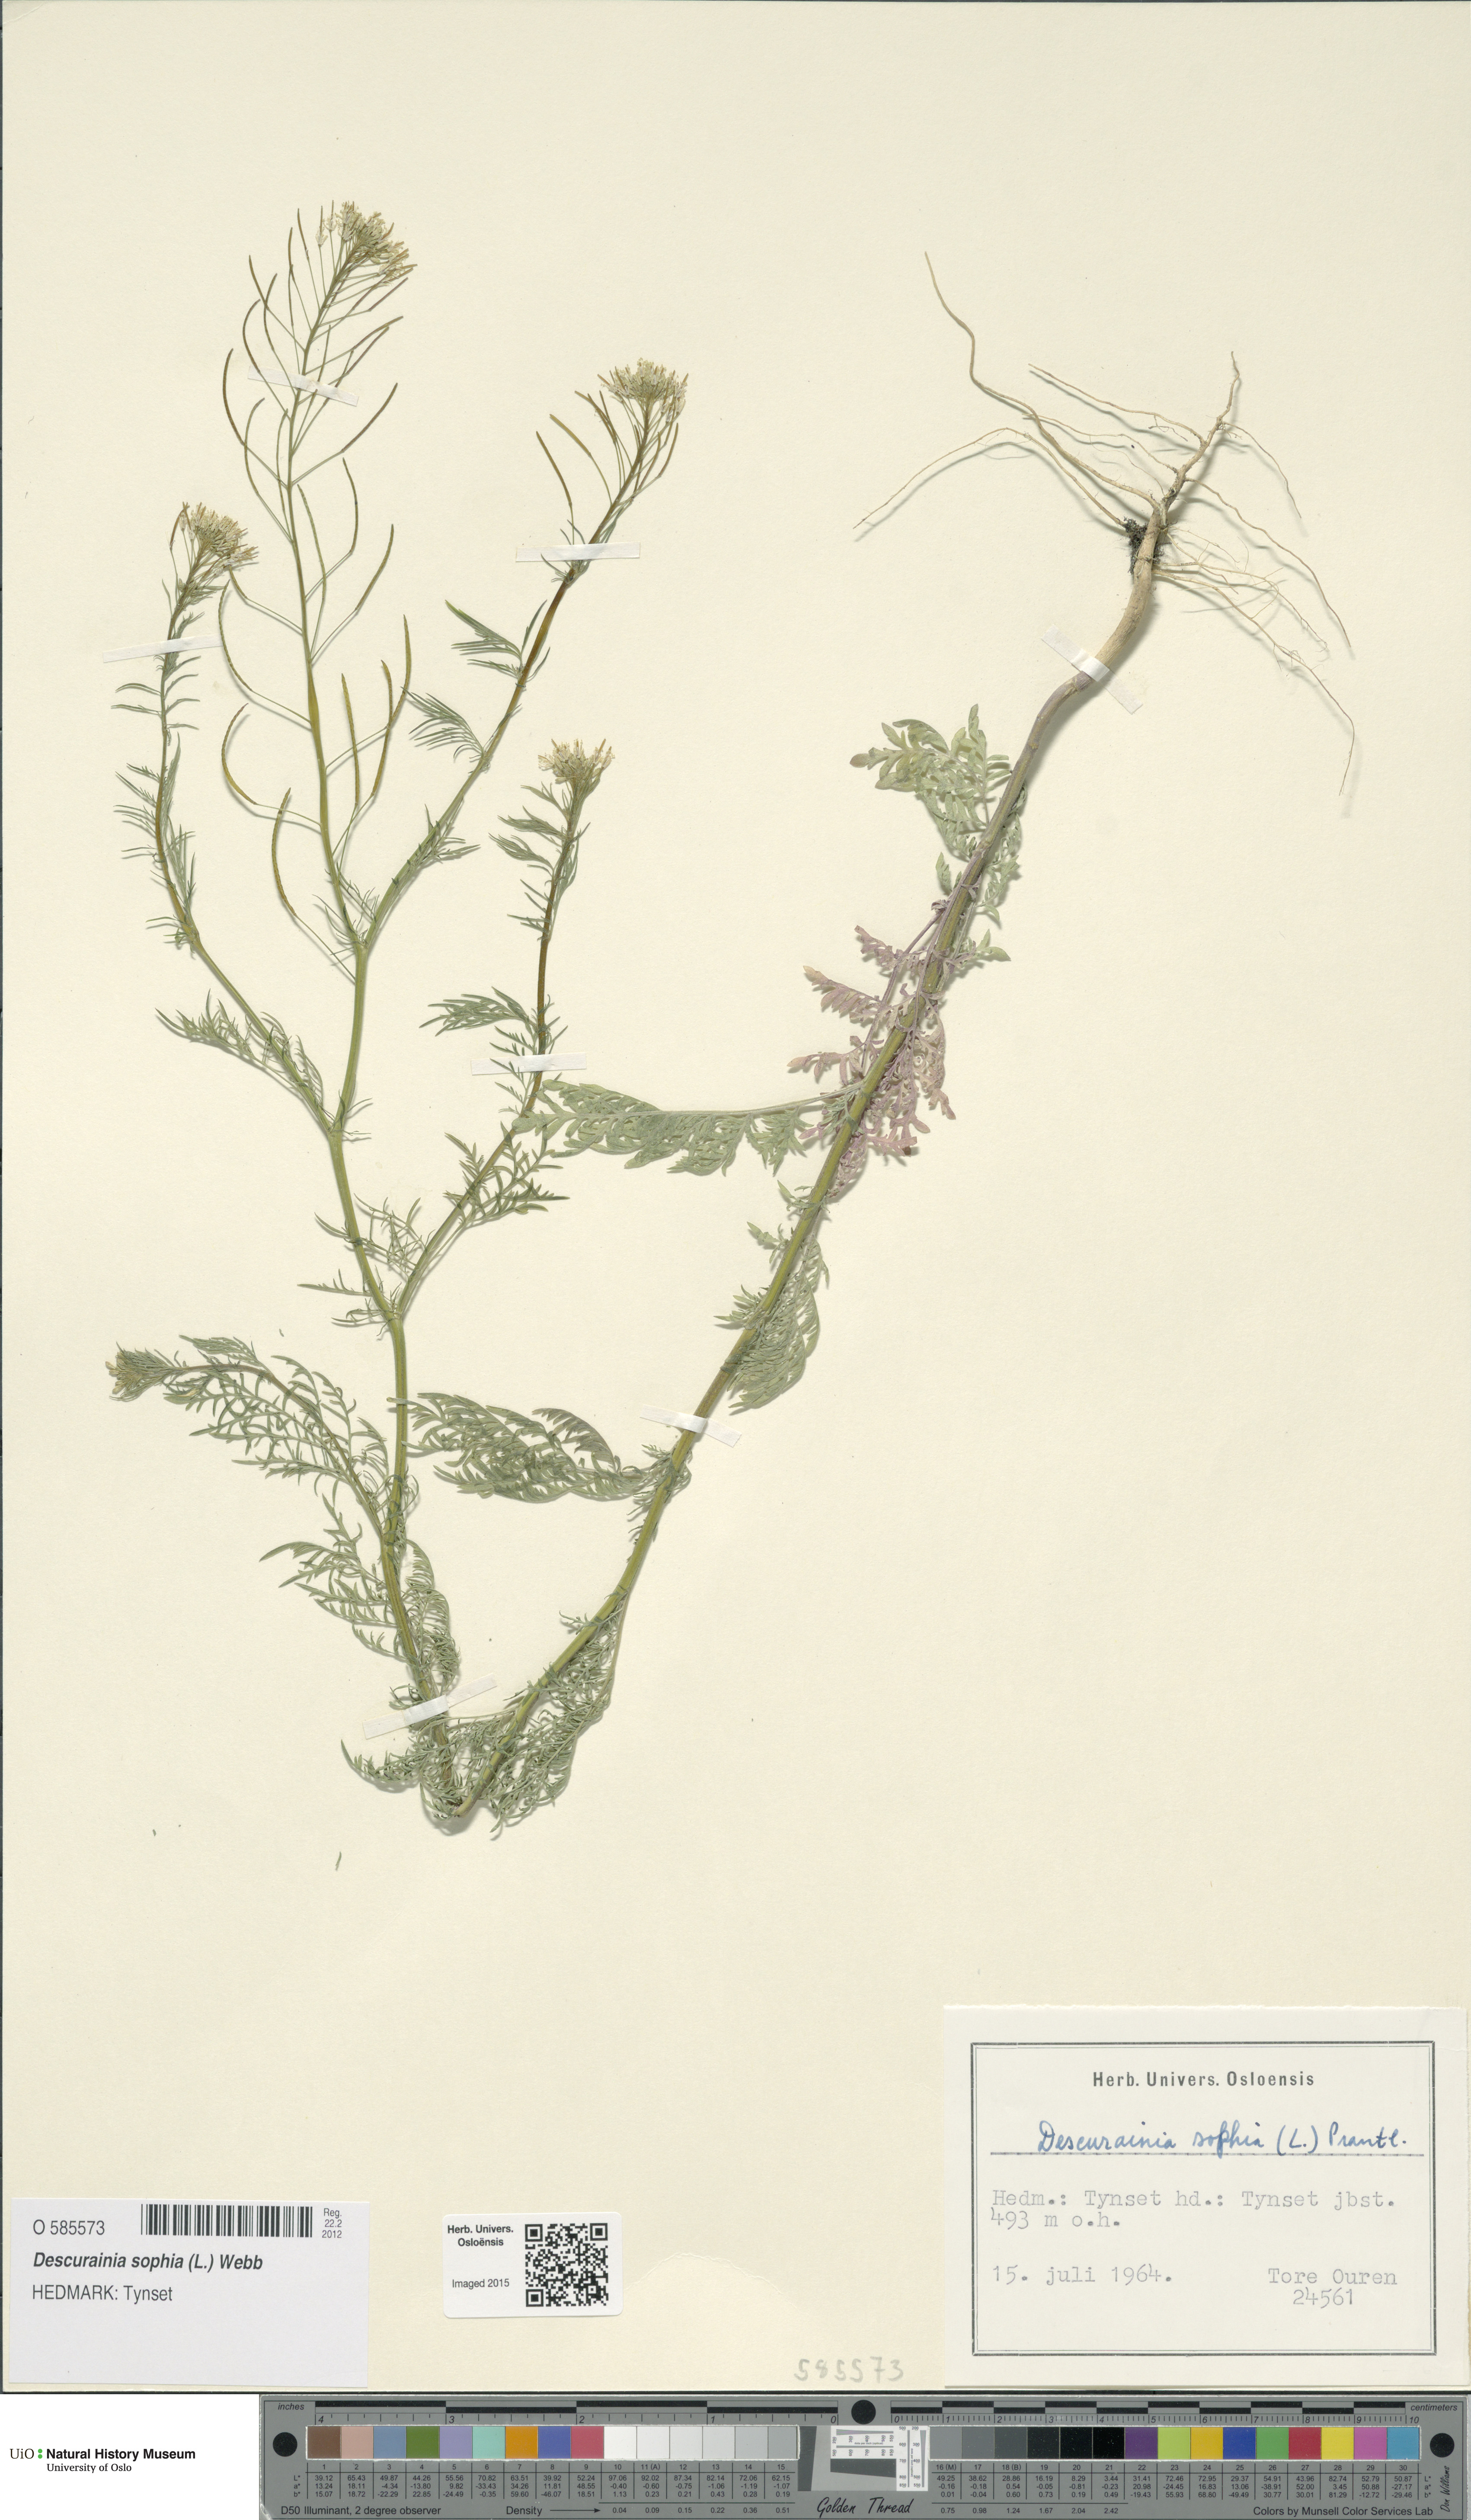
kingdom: Plantae
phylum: Tracheophyta
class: Magnoliopsida
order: Brassicales
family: Brassicaceae
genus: Descurainia
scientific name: Descurainia sophia
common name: Flixweed
